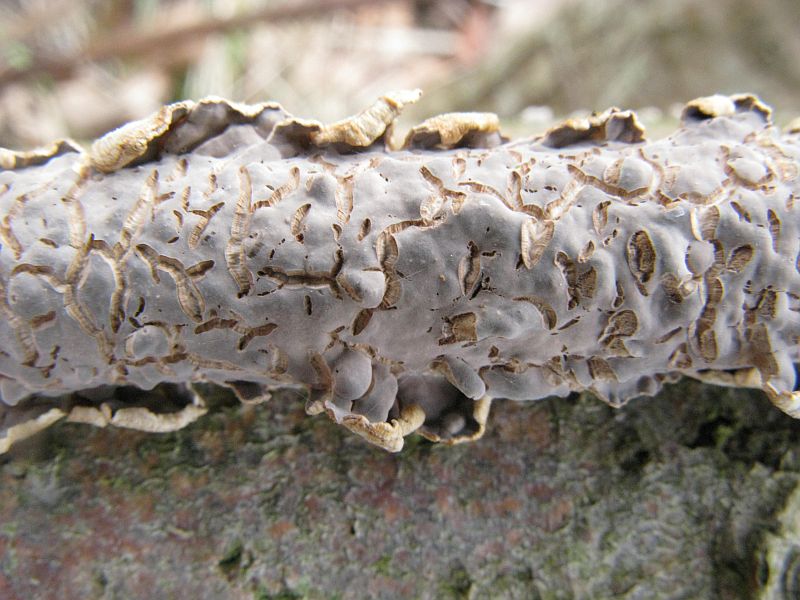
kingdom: Fungi
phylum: Basidiomycota
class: Agaricomycetes
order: Agaricales
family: Physalacriaceae
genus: Cylindrobasidium
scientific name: Cylindrobasidium evolvens
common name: sprækkehinde
